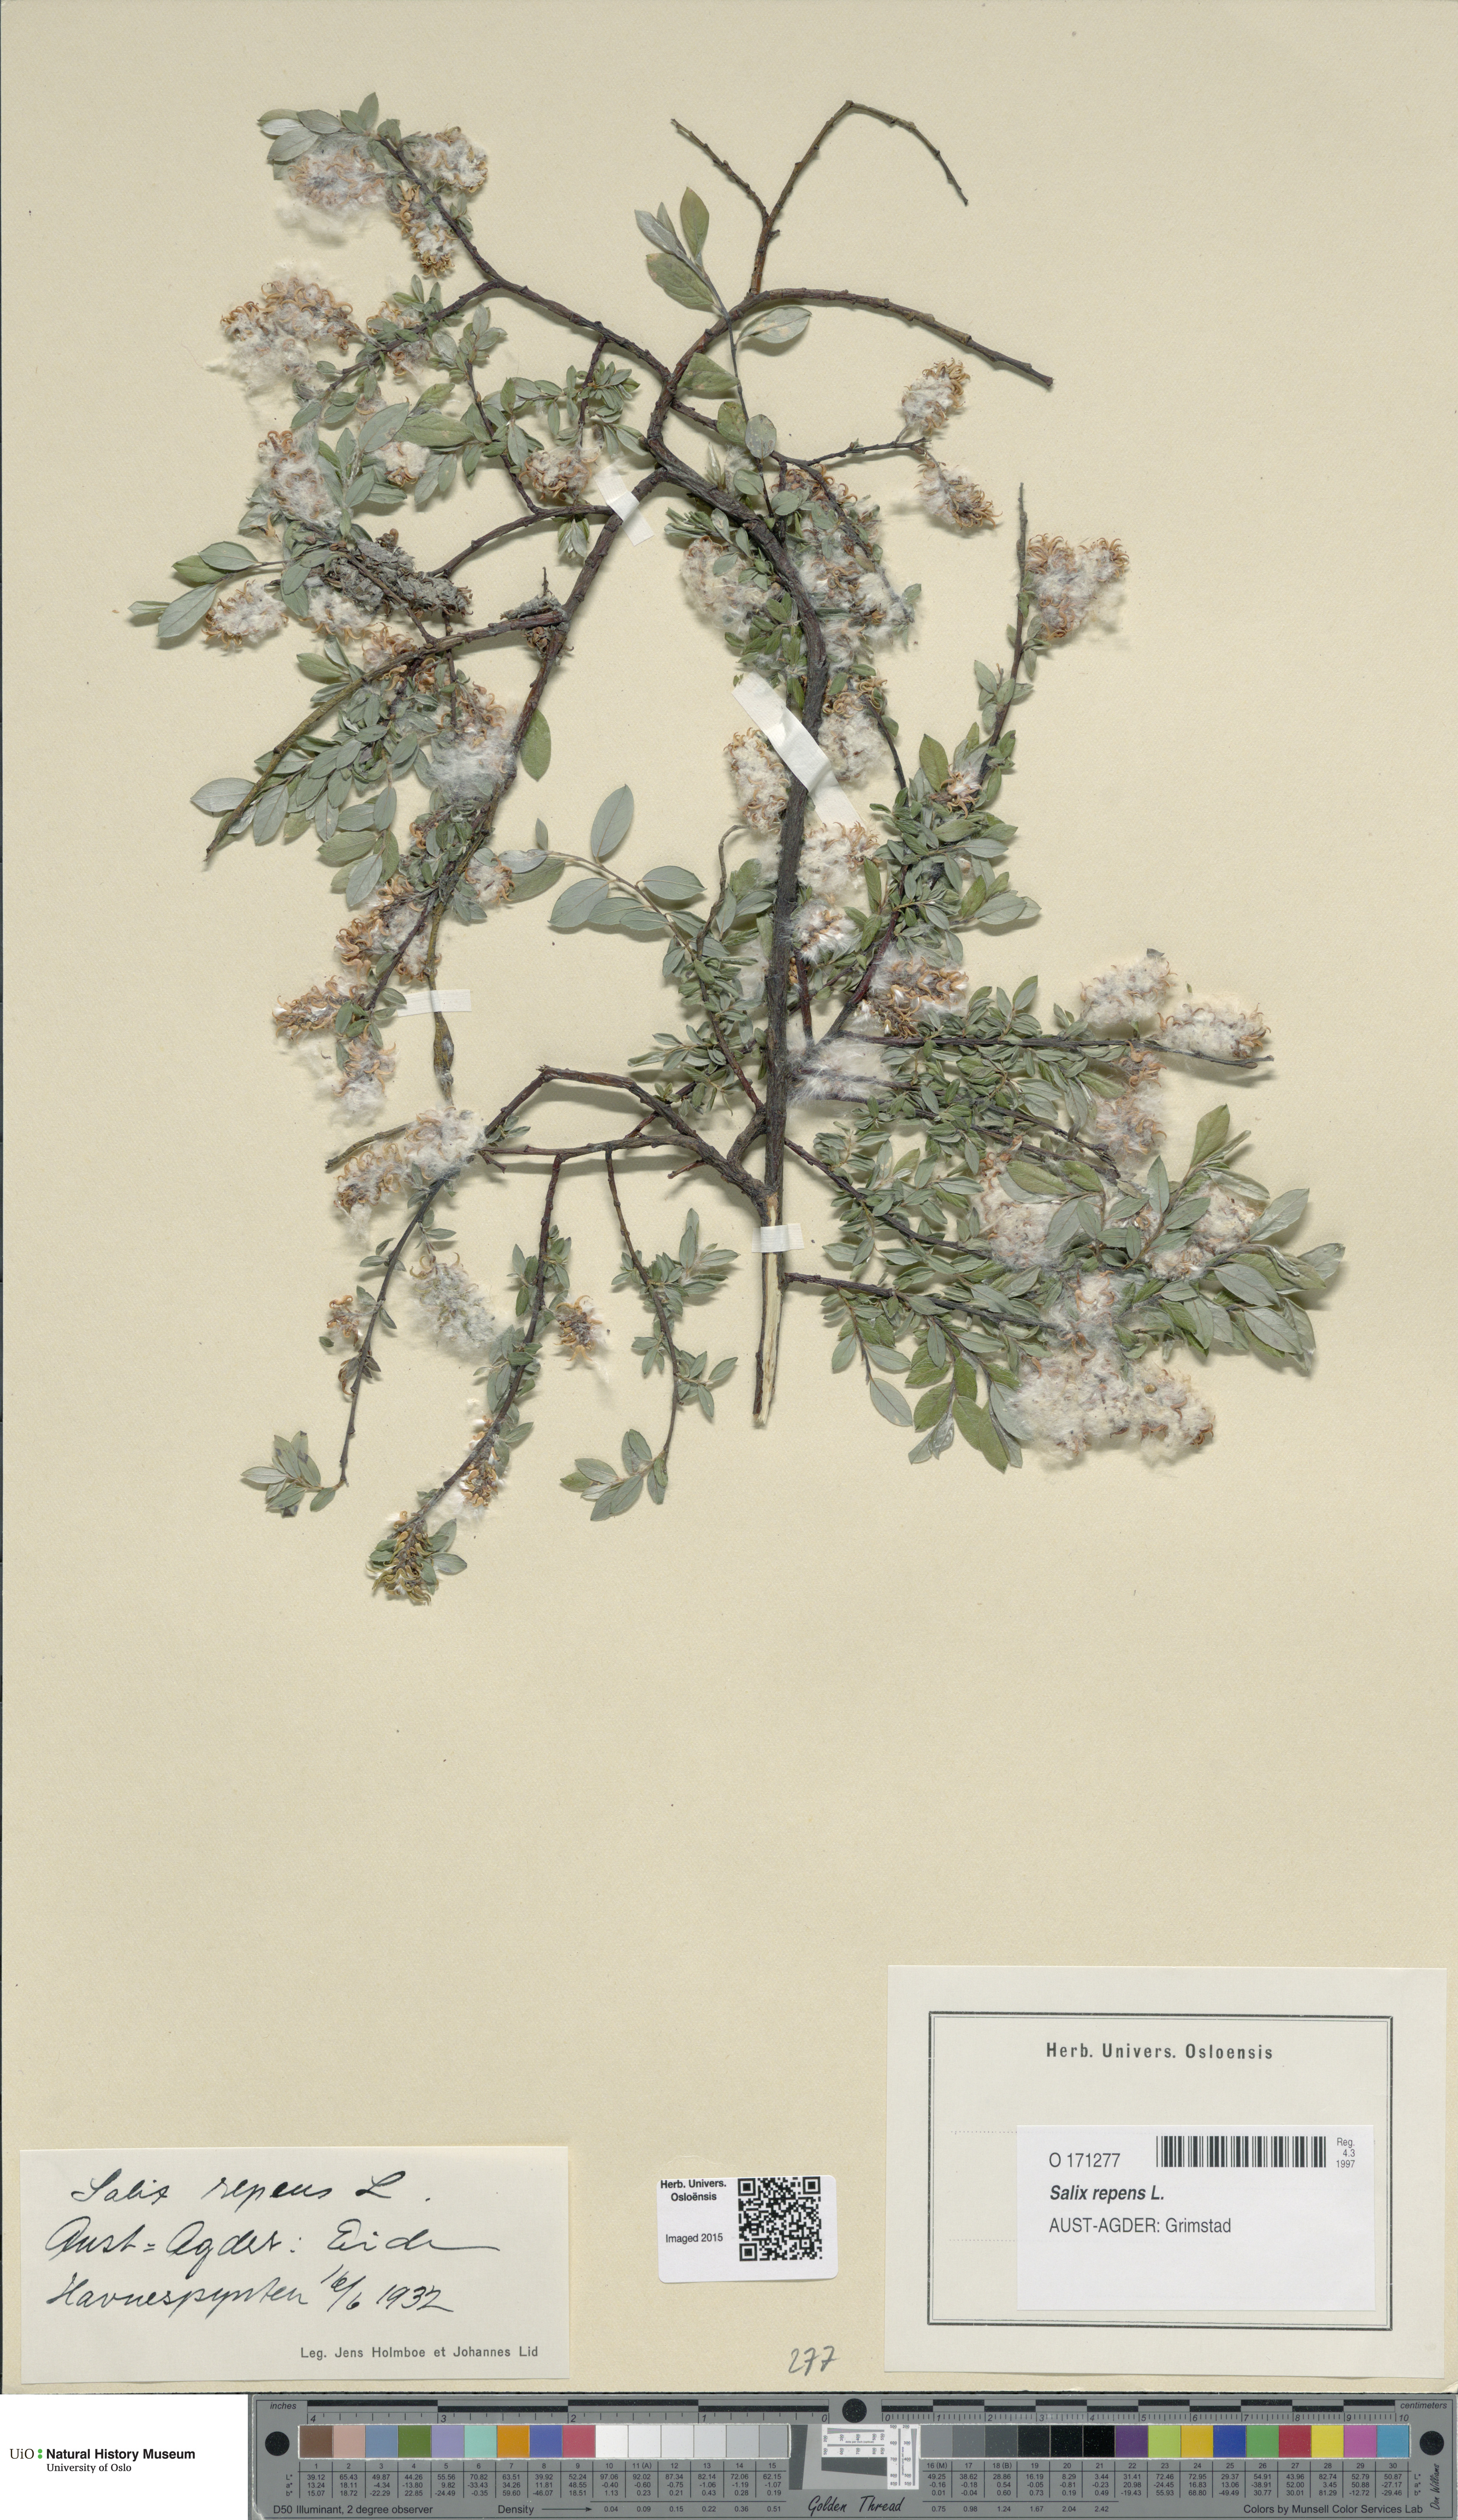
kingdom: Plantae
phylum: Tracheophyta
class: Magnoliopsida
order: Malpighiales
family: Salicaceae
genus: Salix
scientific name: Salix repens
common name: Creeping willow
